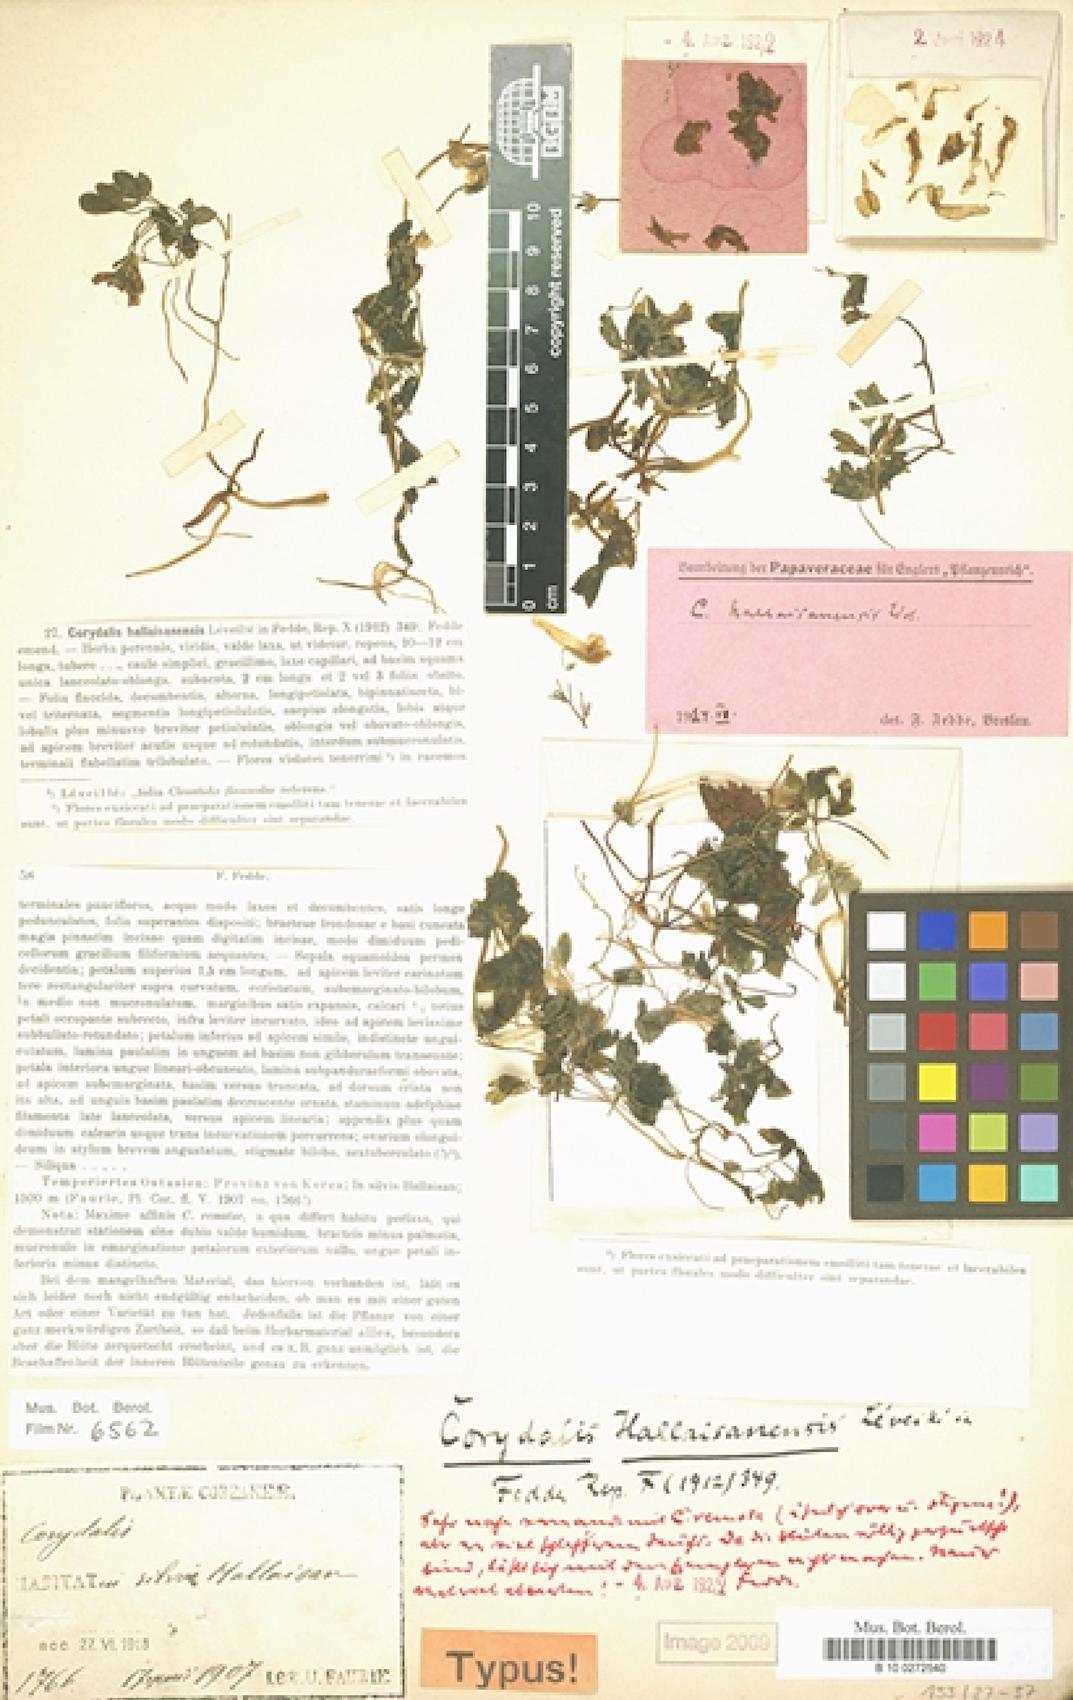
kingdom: Plantae
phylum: Tracheophyta
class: Magnoliopsida
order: Ranunculales
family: Papaveraceae
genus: Corydalis
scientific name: Corydalis hallaisanensis
